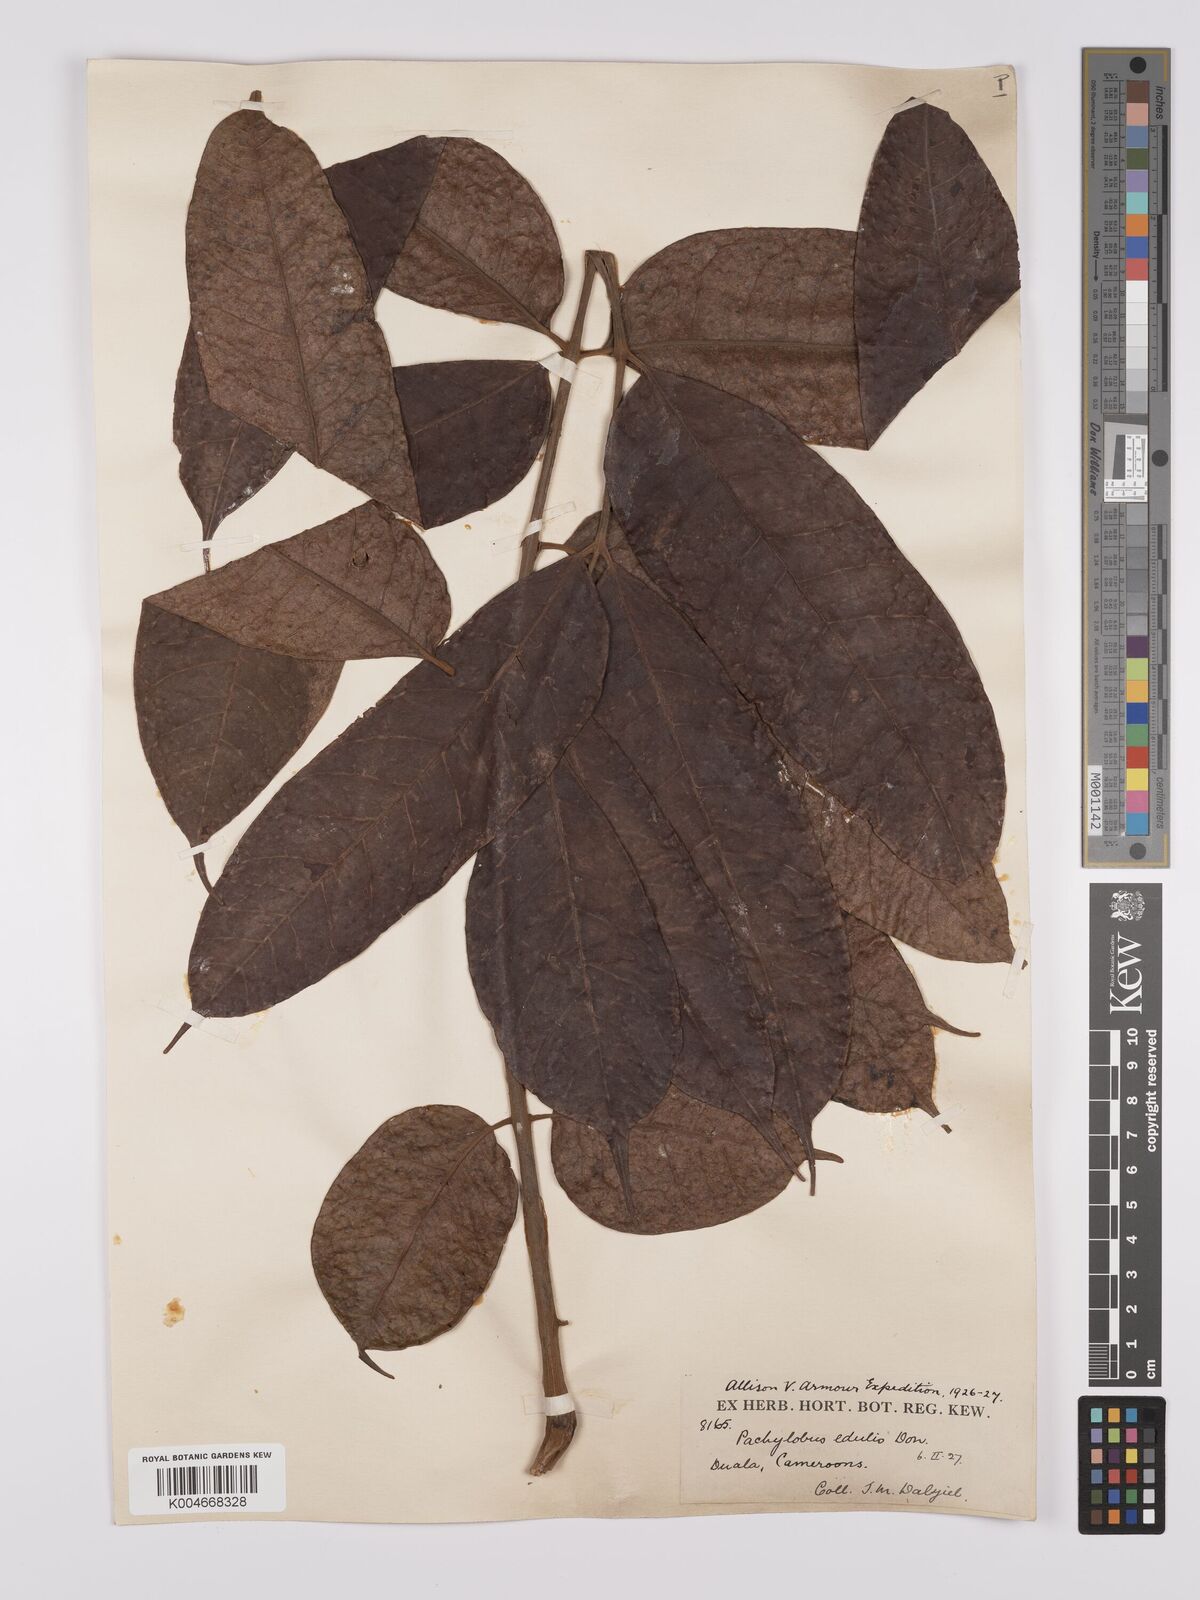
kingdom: Plantae
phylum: Tracheophyta
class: Magnoliopsida
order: Sapindales
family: Burseraceae
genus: Pachylobus
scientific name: Pachylobus edulis
